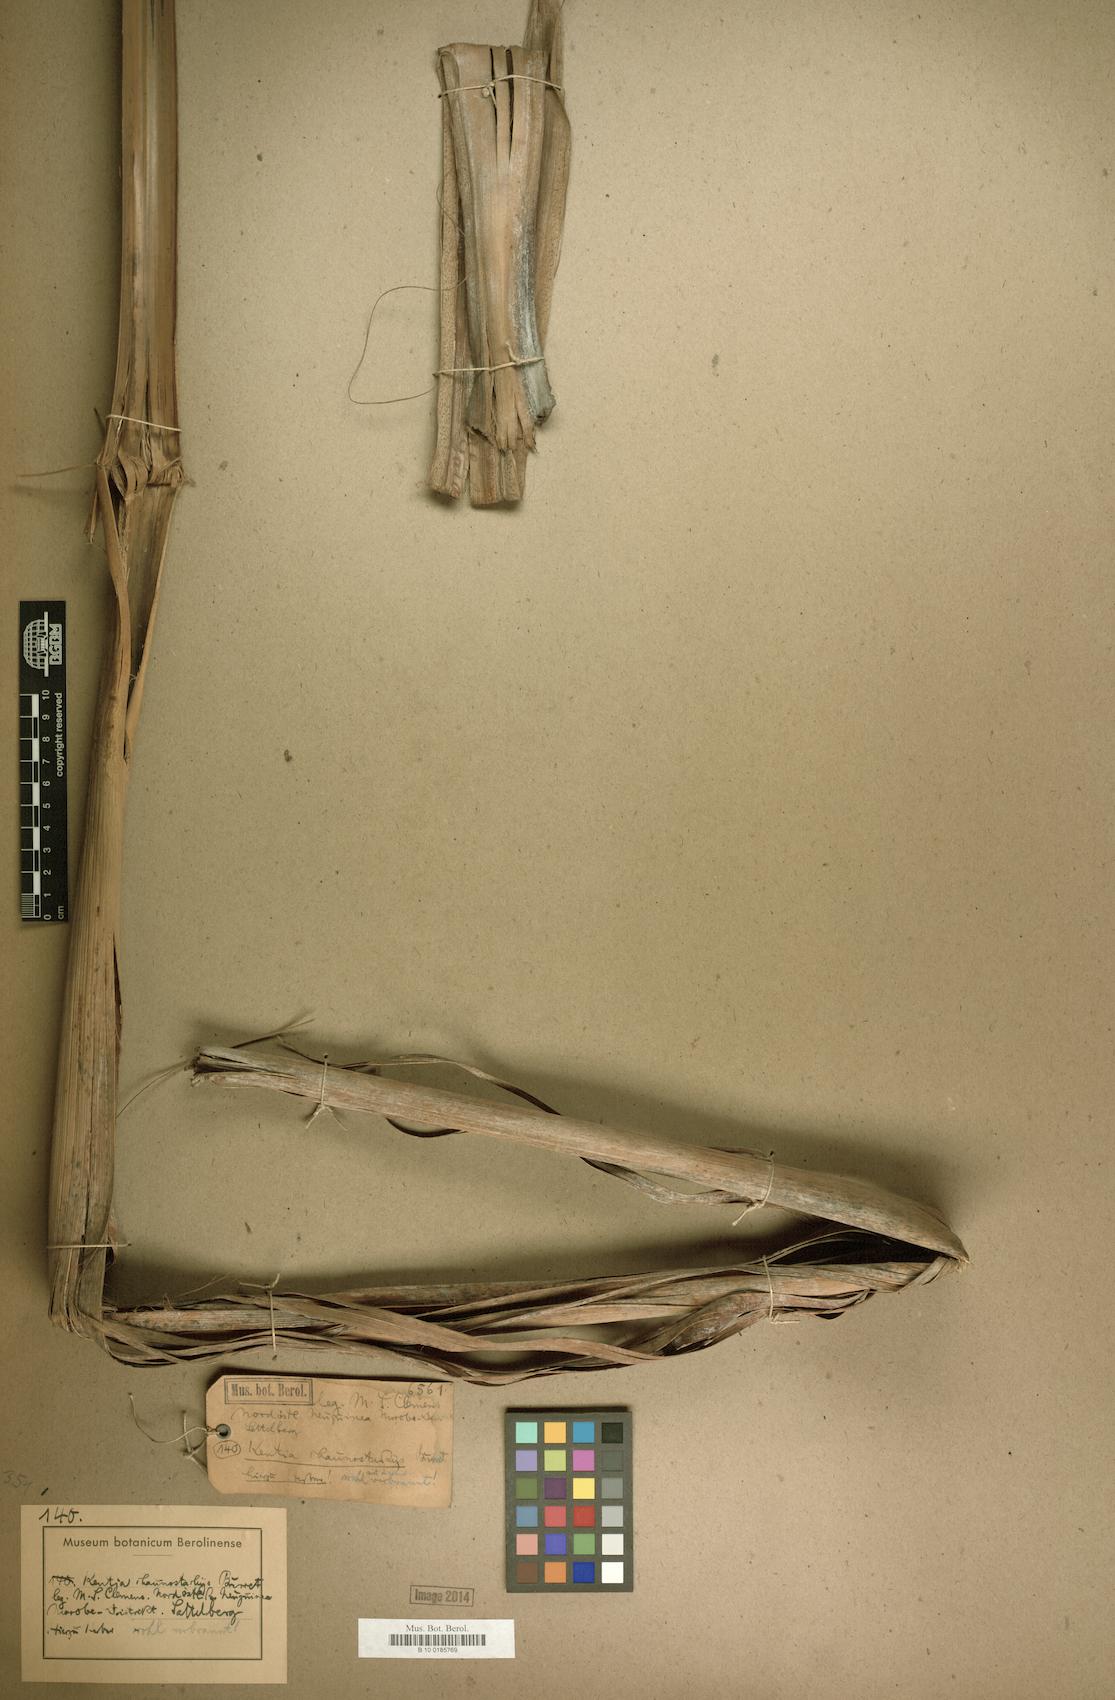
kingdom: Plantae
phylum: Tracheophyta
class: Liliopsida
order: Arecales
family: Arecaceae
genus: Hydriastele
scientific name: Hydriastele ledermanniana
